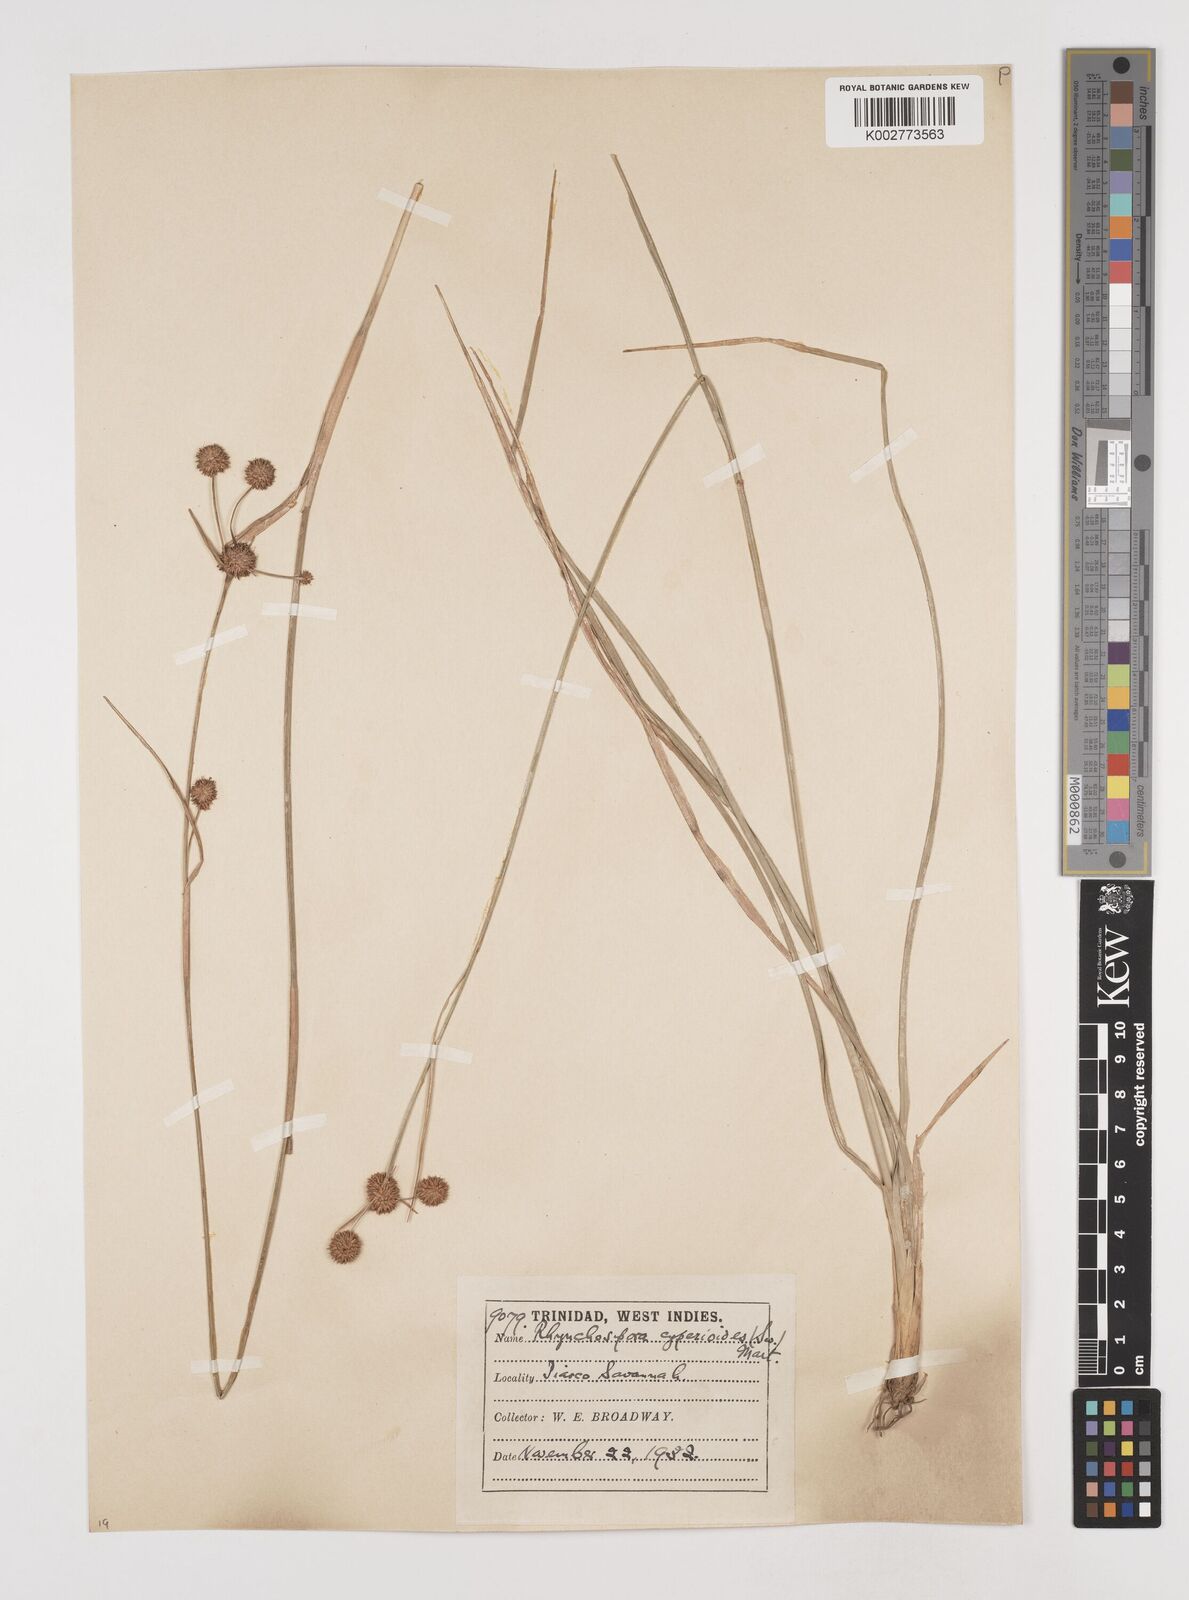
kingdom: Plantae
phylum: Tracheophyta
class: Liliopsida
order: Poales
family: Cyperaceae
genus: Rhynchospora
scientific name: Rhynchospora holoschoenoides
